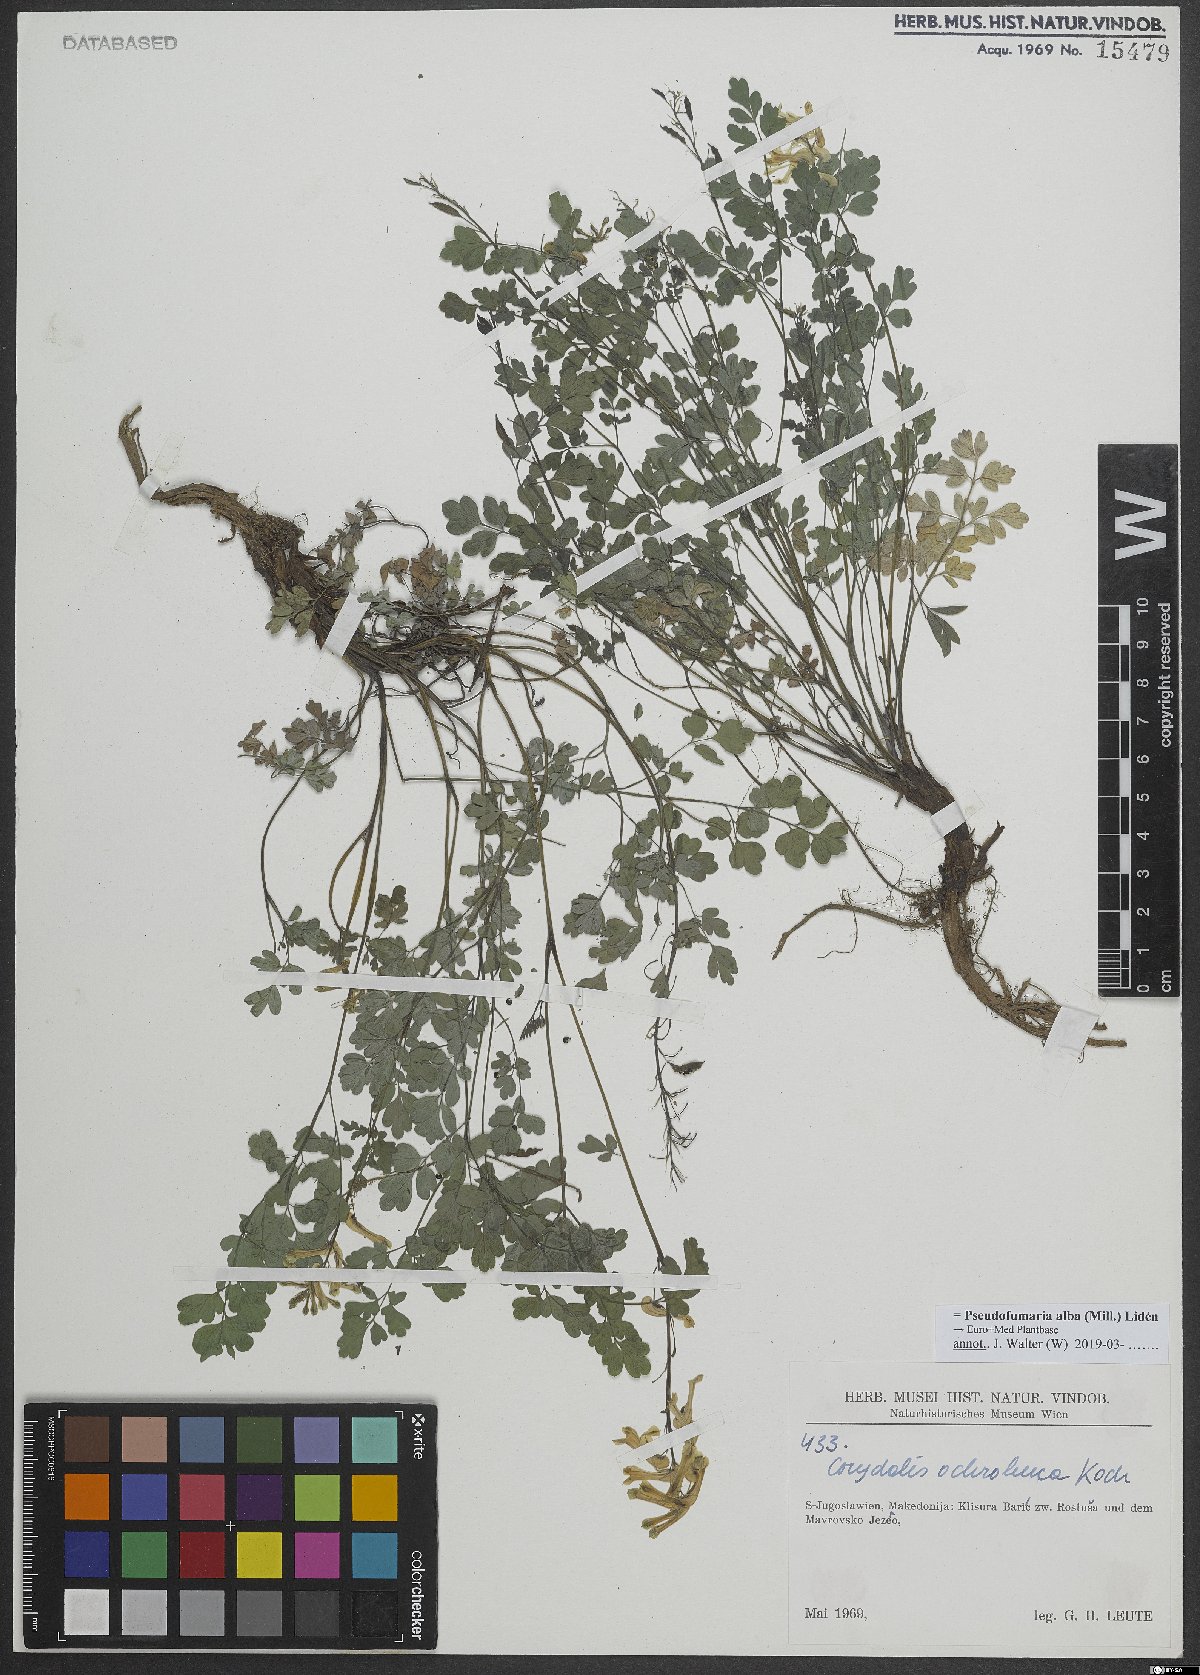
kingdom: Plantae
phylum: Tracheophyta
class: Magnoliopsida
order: Ranunculales
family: Papaveraceae
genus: Pseudofumaria
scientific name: Pseudofumaria alba
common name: Pale corydalis
